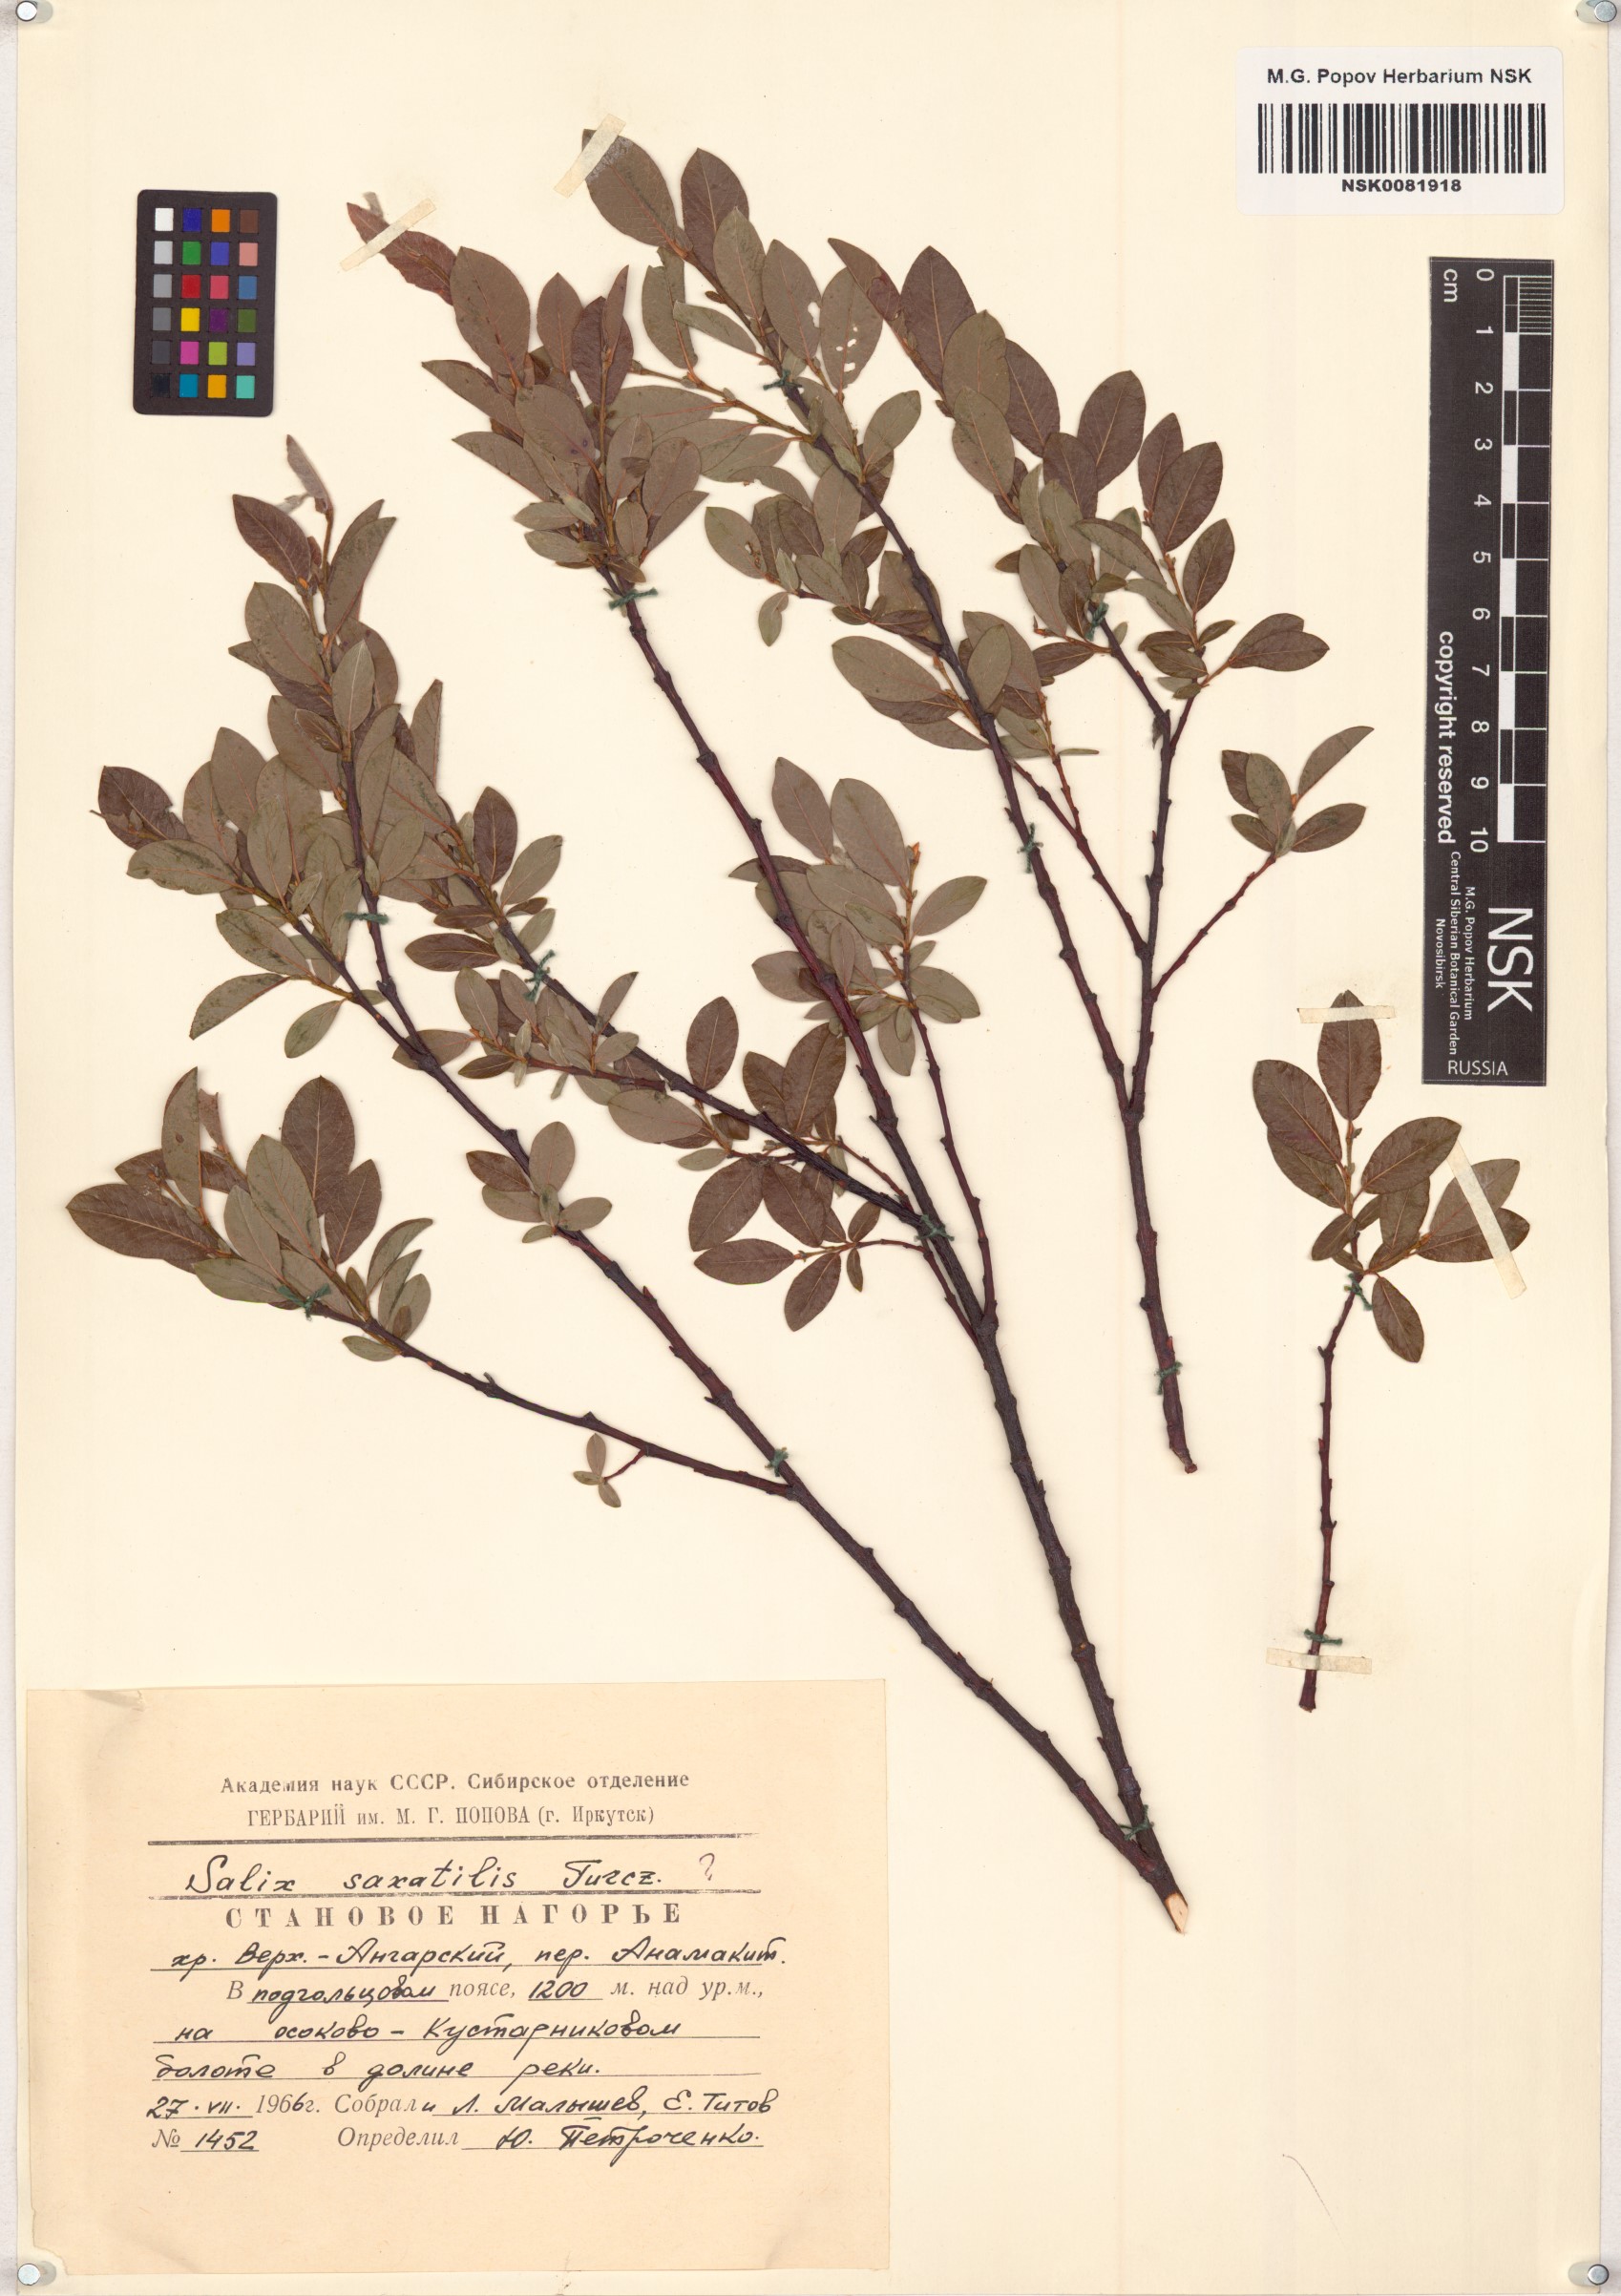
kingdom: Plantae
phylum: Tracheophyta
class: Magnoliopsida
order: Malpighiales
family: Salicaceae
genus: Salix
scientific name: Salix saxatilis
